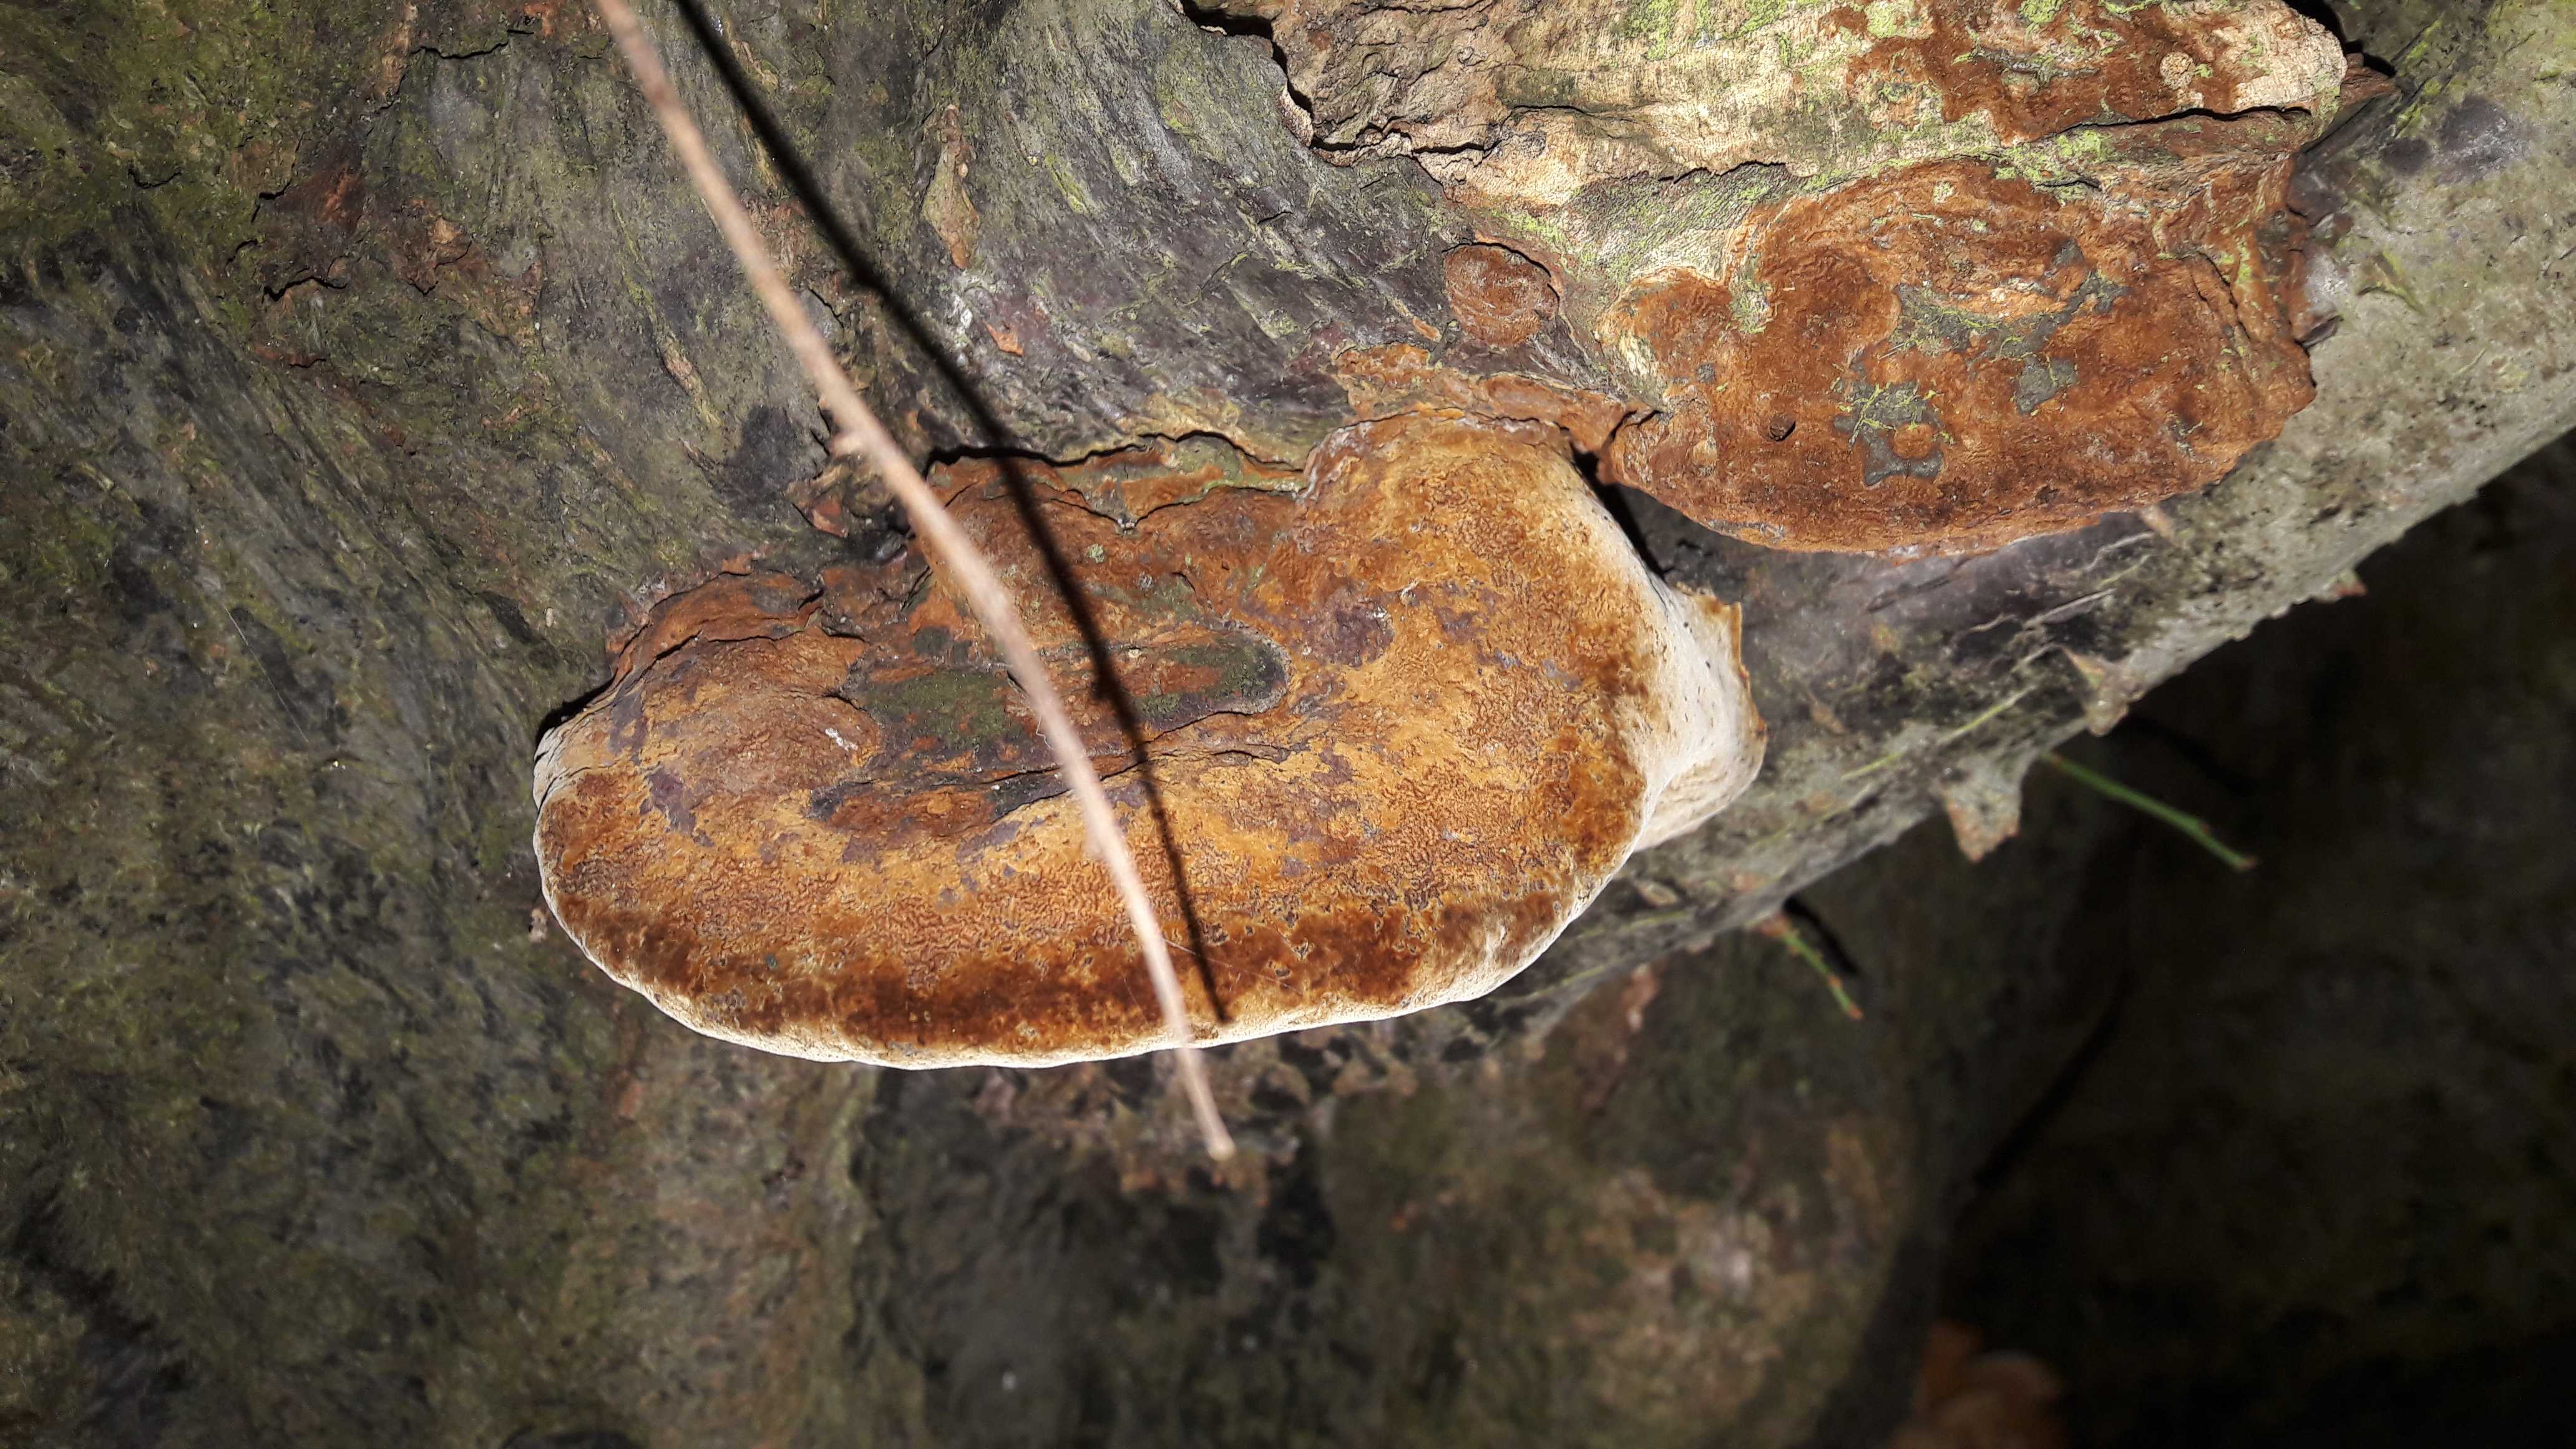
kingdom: Fungi
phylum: Basidiomycota
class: Agaricomycetes
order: Hymenochaetales
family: Hymenochaetaceae
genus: Phellinus
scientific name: Phellinus pomaceus
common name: blomme-ildporesvamp
